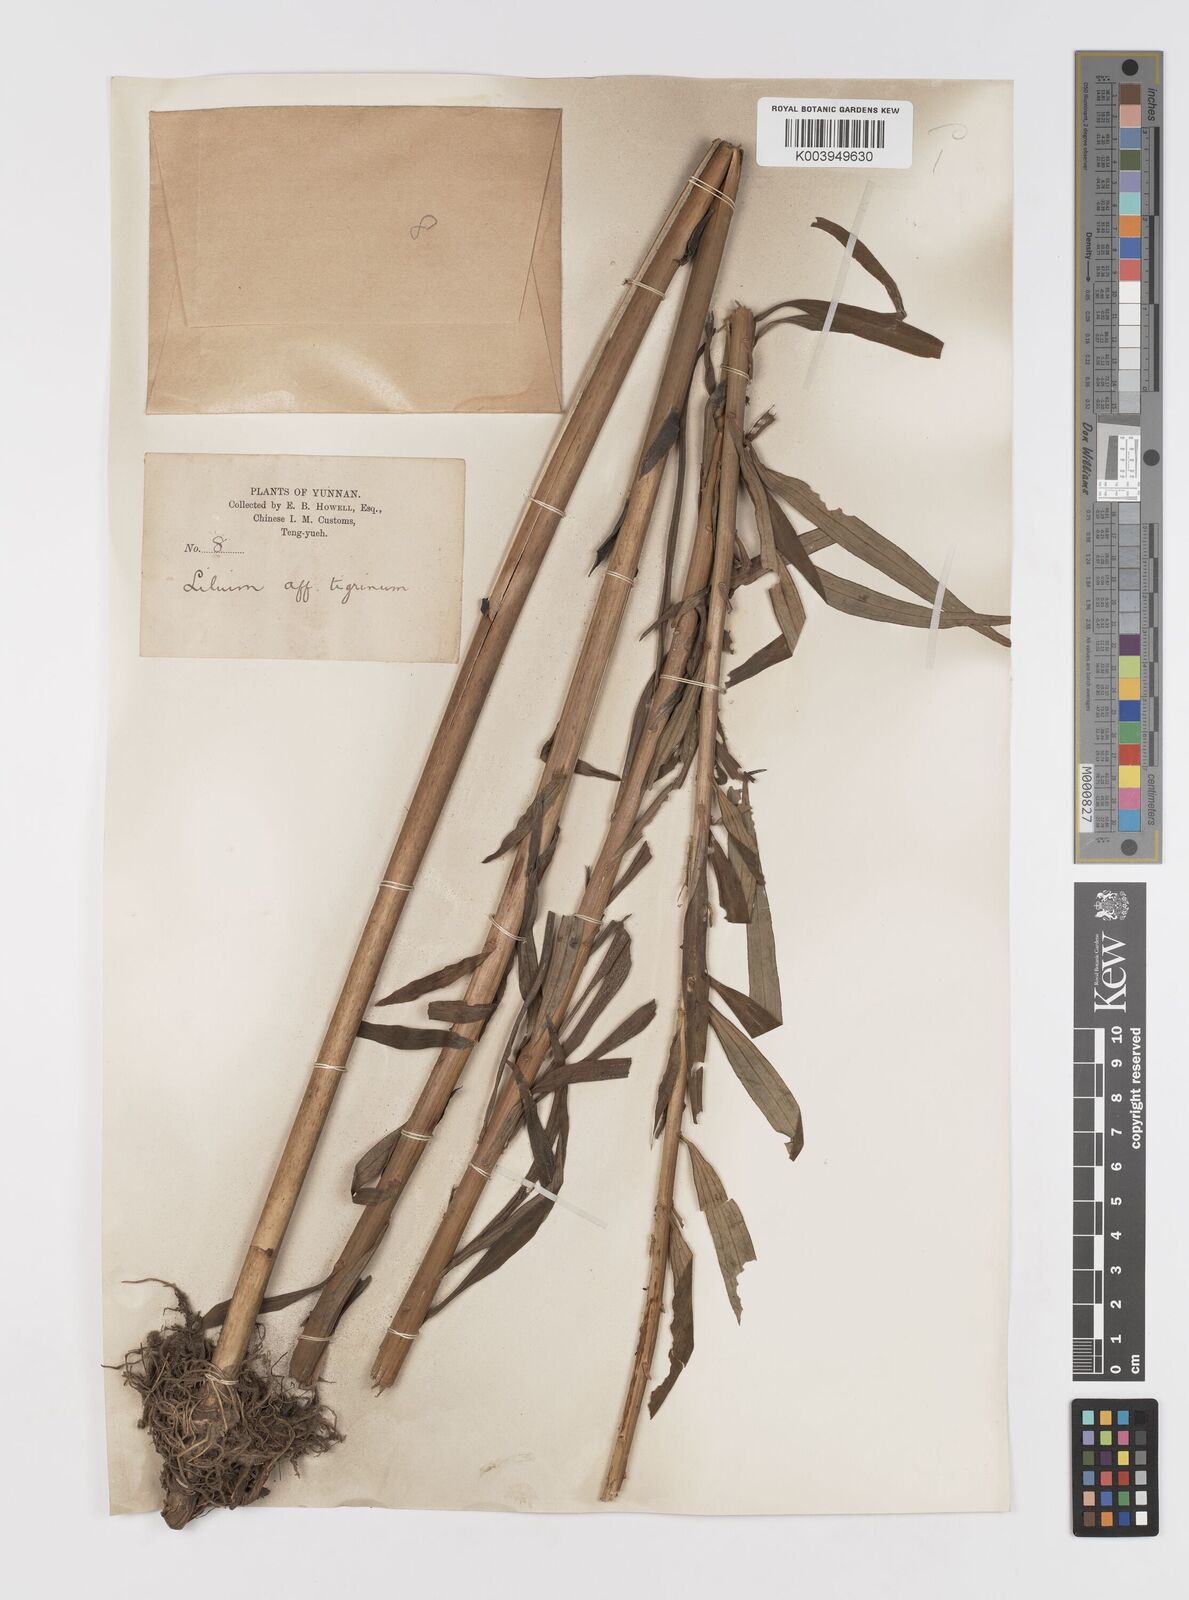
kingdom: Plantae
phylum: Tracheophyta
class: Liliopsida
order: Liliales
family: Liliaceae
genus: Lilium
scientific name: Lilium
